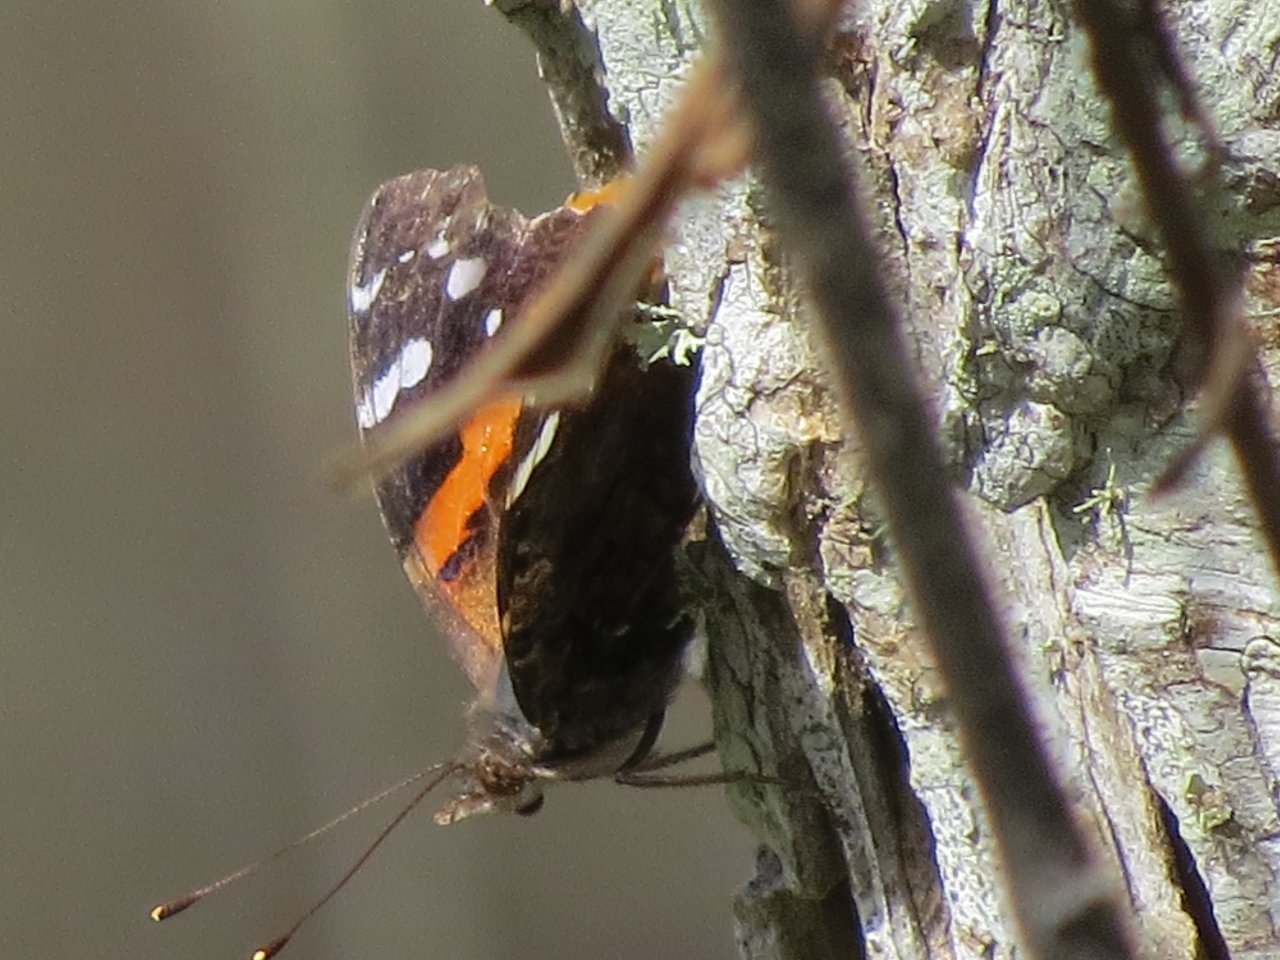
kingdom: Animalia
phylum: Arthropoda
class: Insecta
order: Lepidoptera
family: Nymphalidae
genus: Vanessa
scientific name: Vanessa atalanta
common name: Red Admiral
